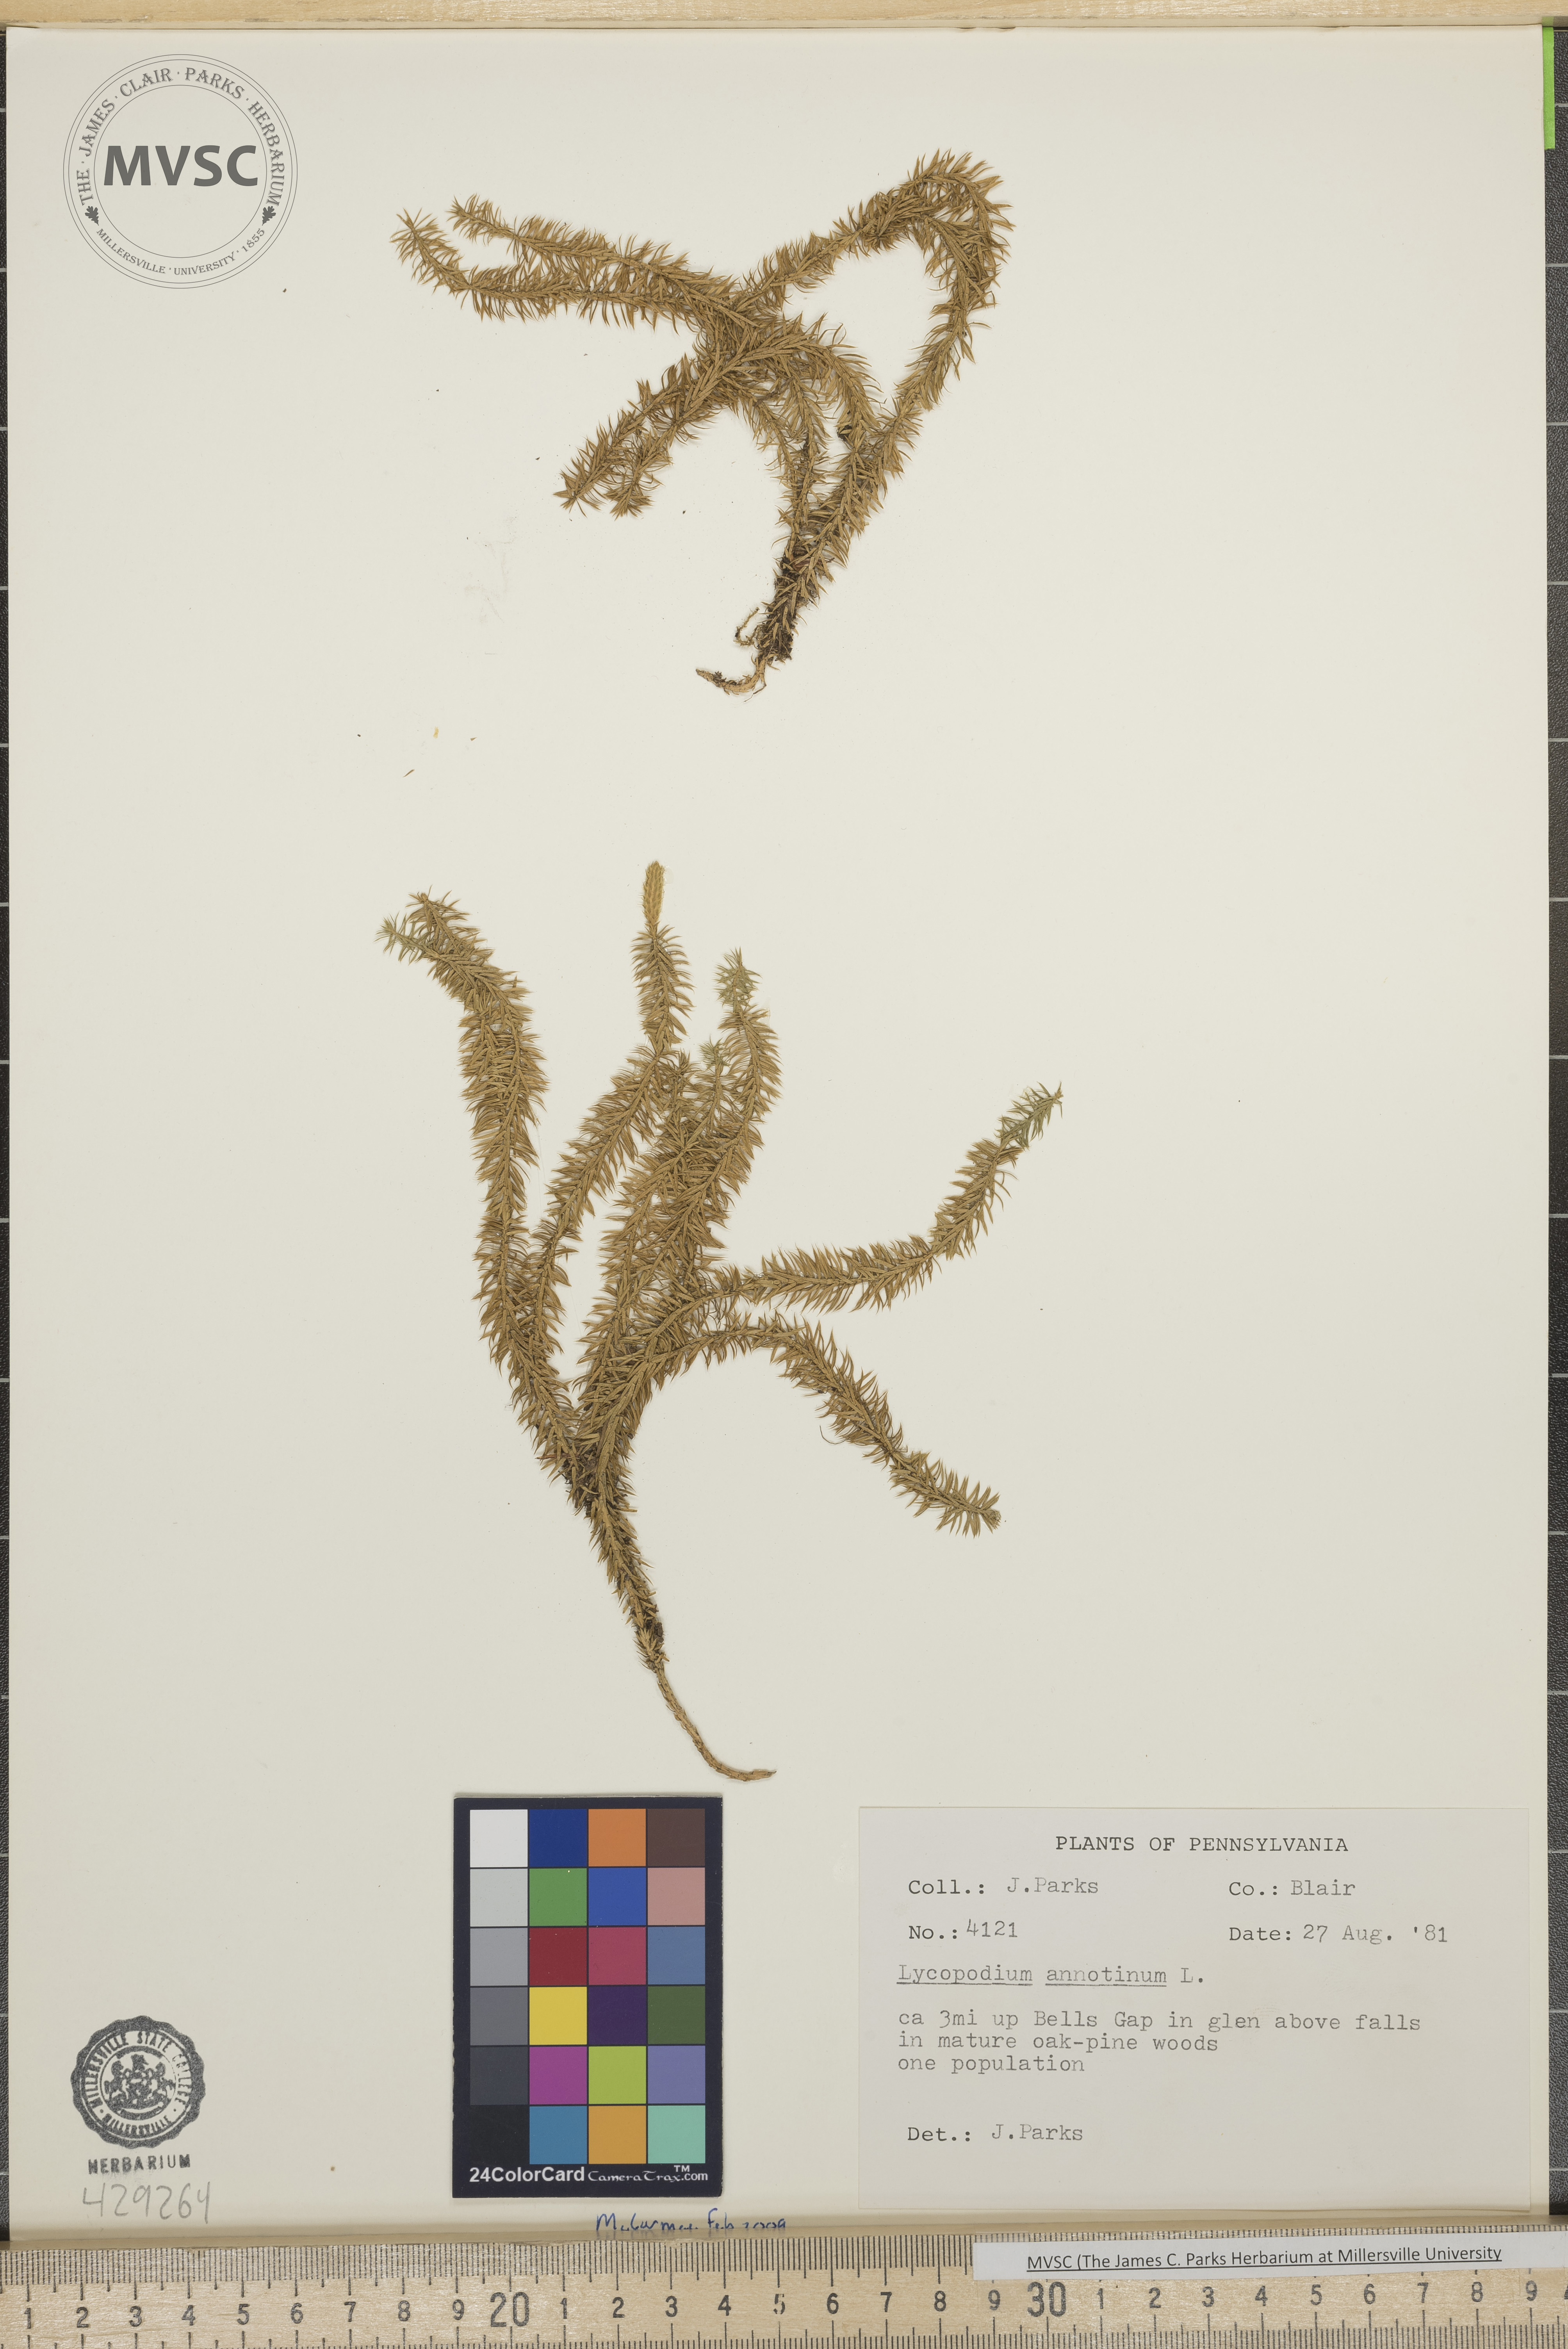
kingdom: Plantae
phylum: Tracheophyta
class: Lycopodiopsida
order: Lycopodiales
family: Lycopodiaceae
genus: Spinulum
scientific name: Spinulum annotinum
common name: Interrupted club-moss
